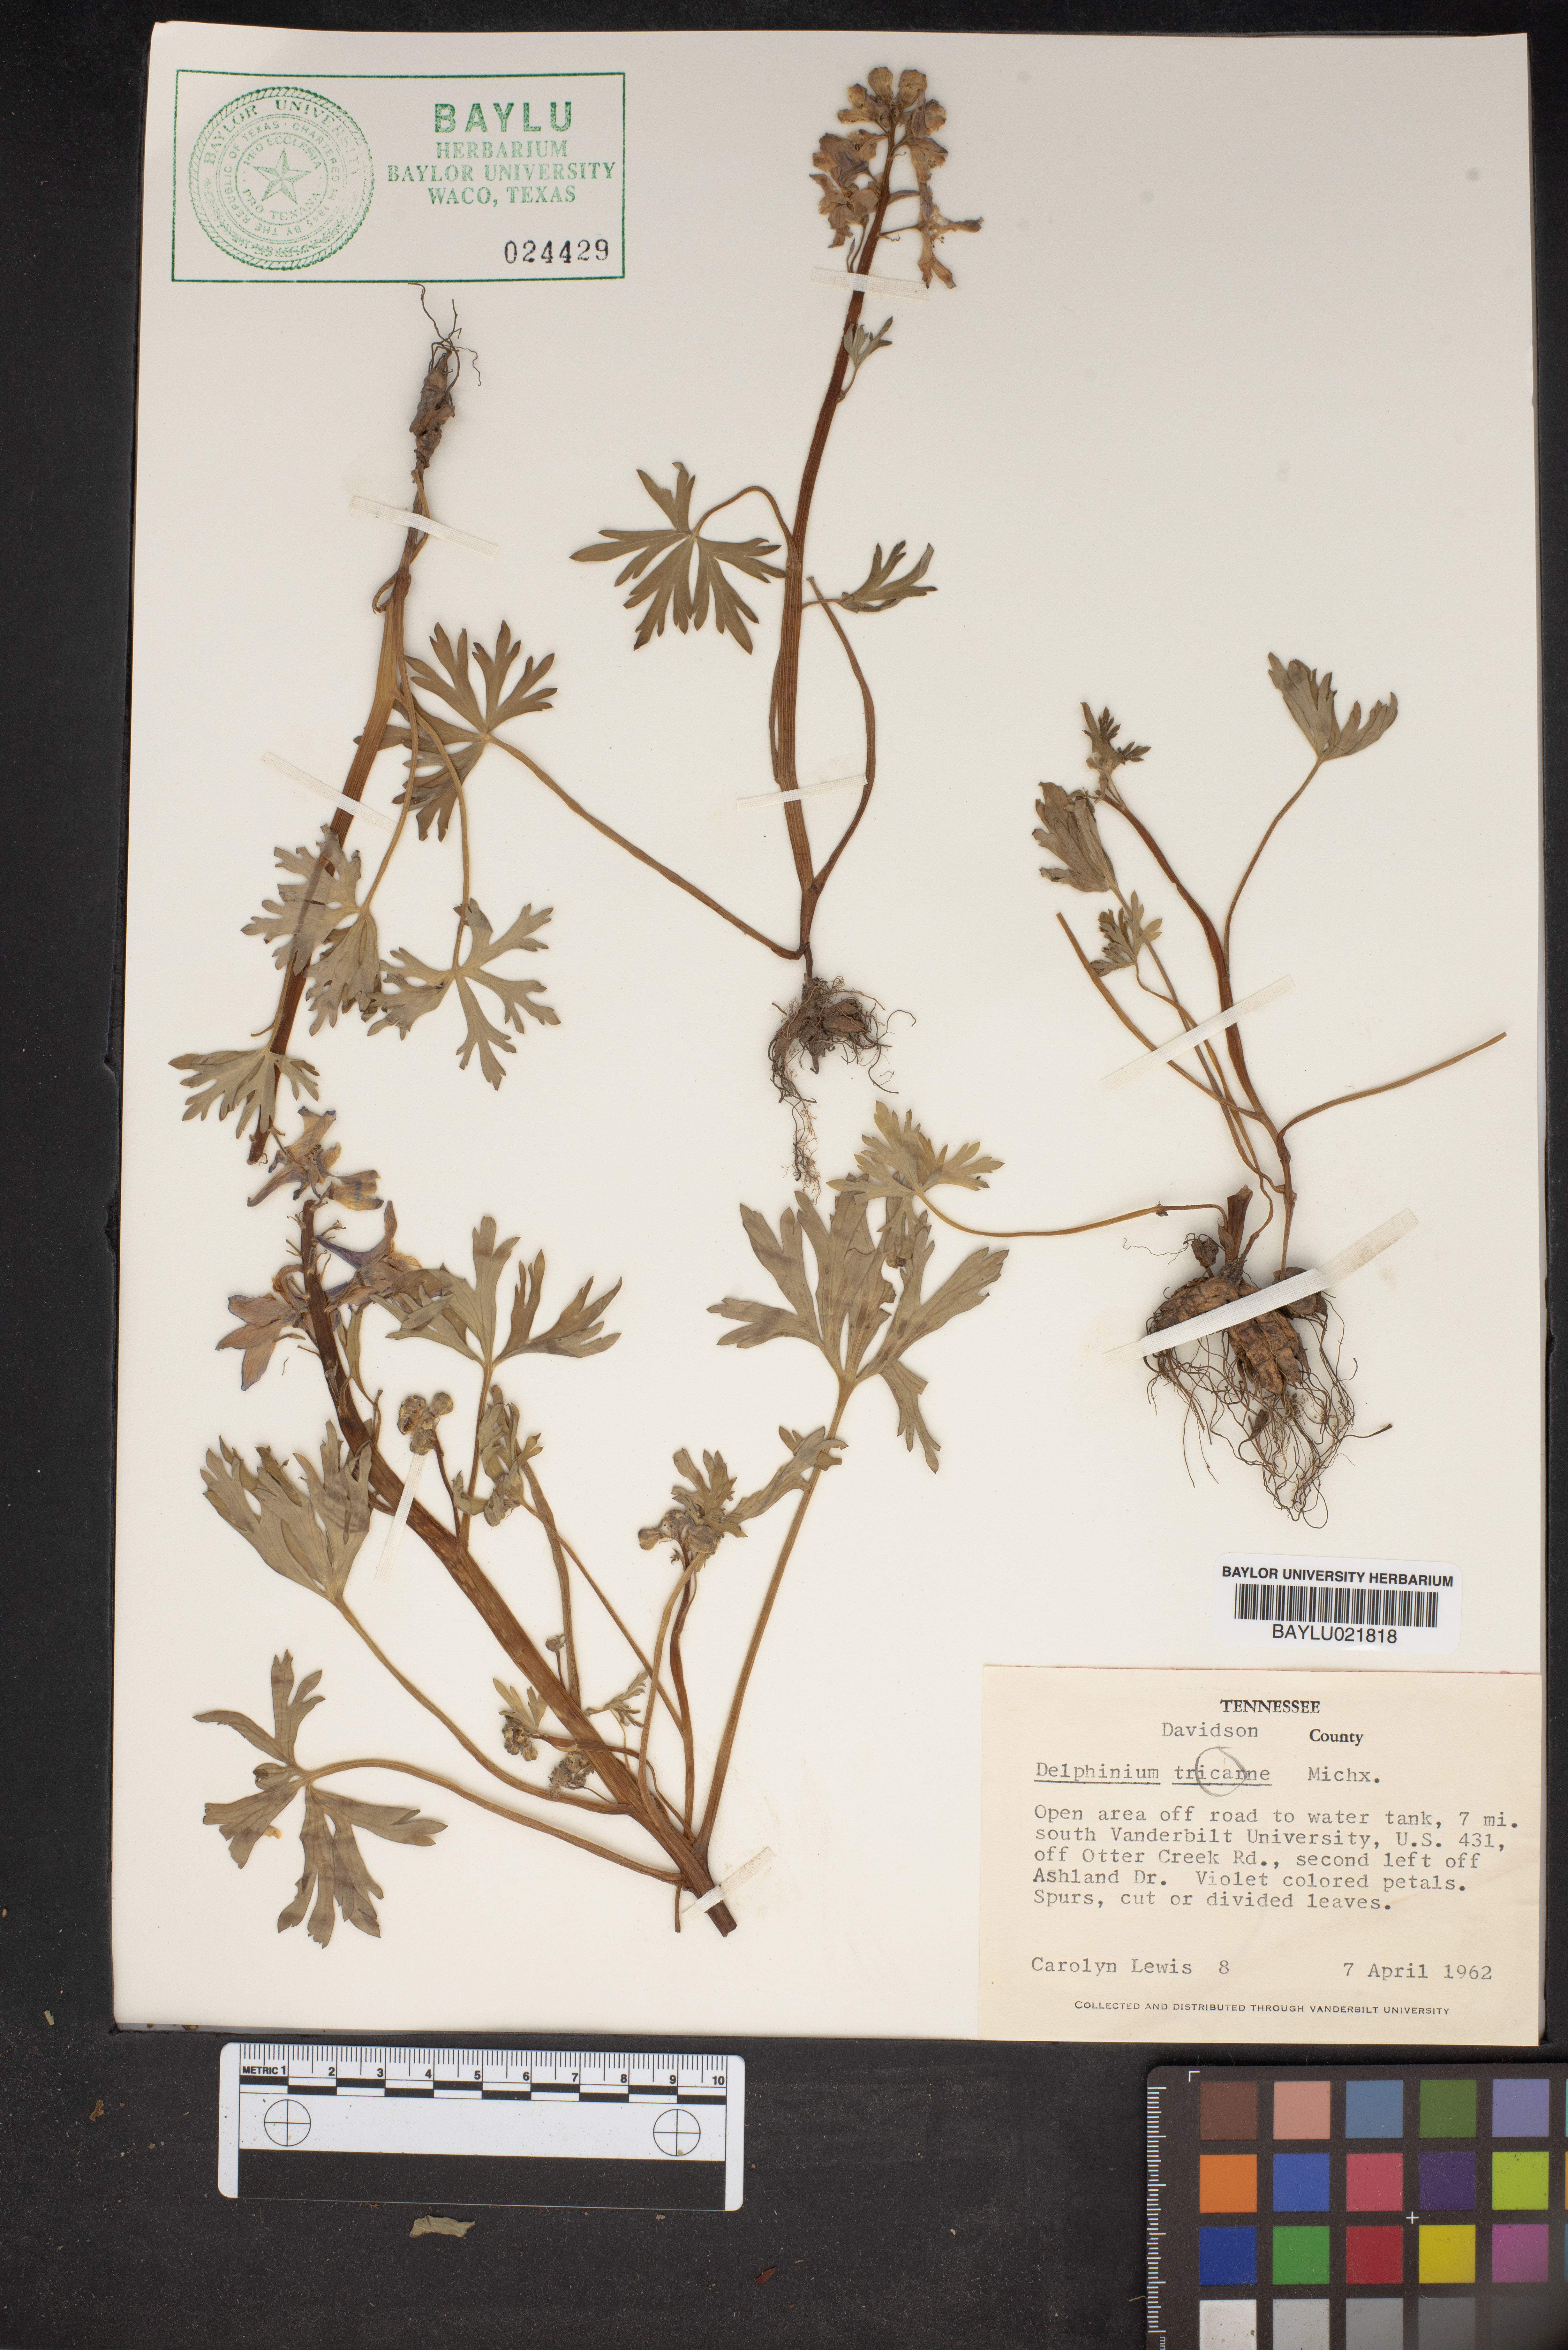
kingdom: Plantae
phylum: Tracheophyta
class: Magnoliopsida
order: Ranunculales
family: Ranunculaceae
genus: Delphinium
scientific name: Delphinium tricorne
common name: Dwarf larkspur
